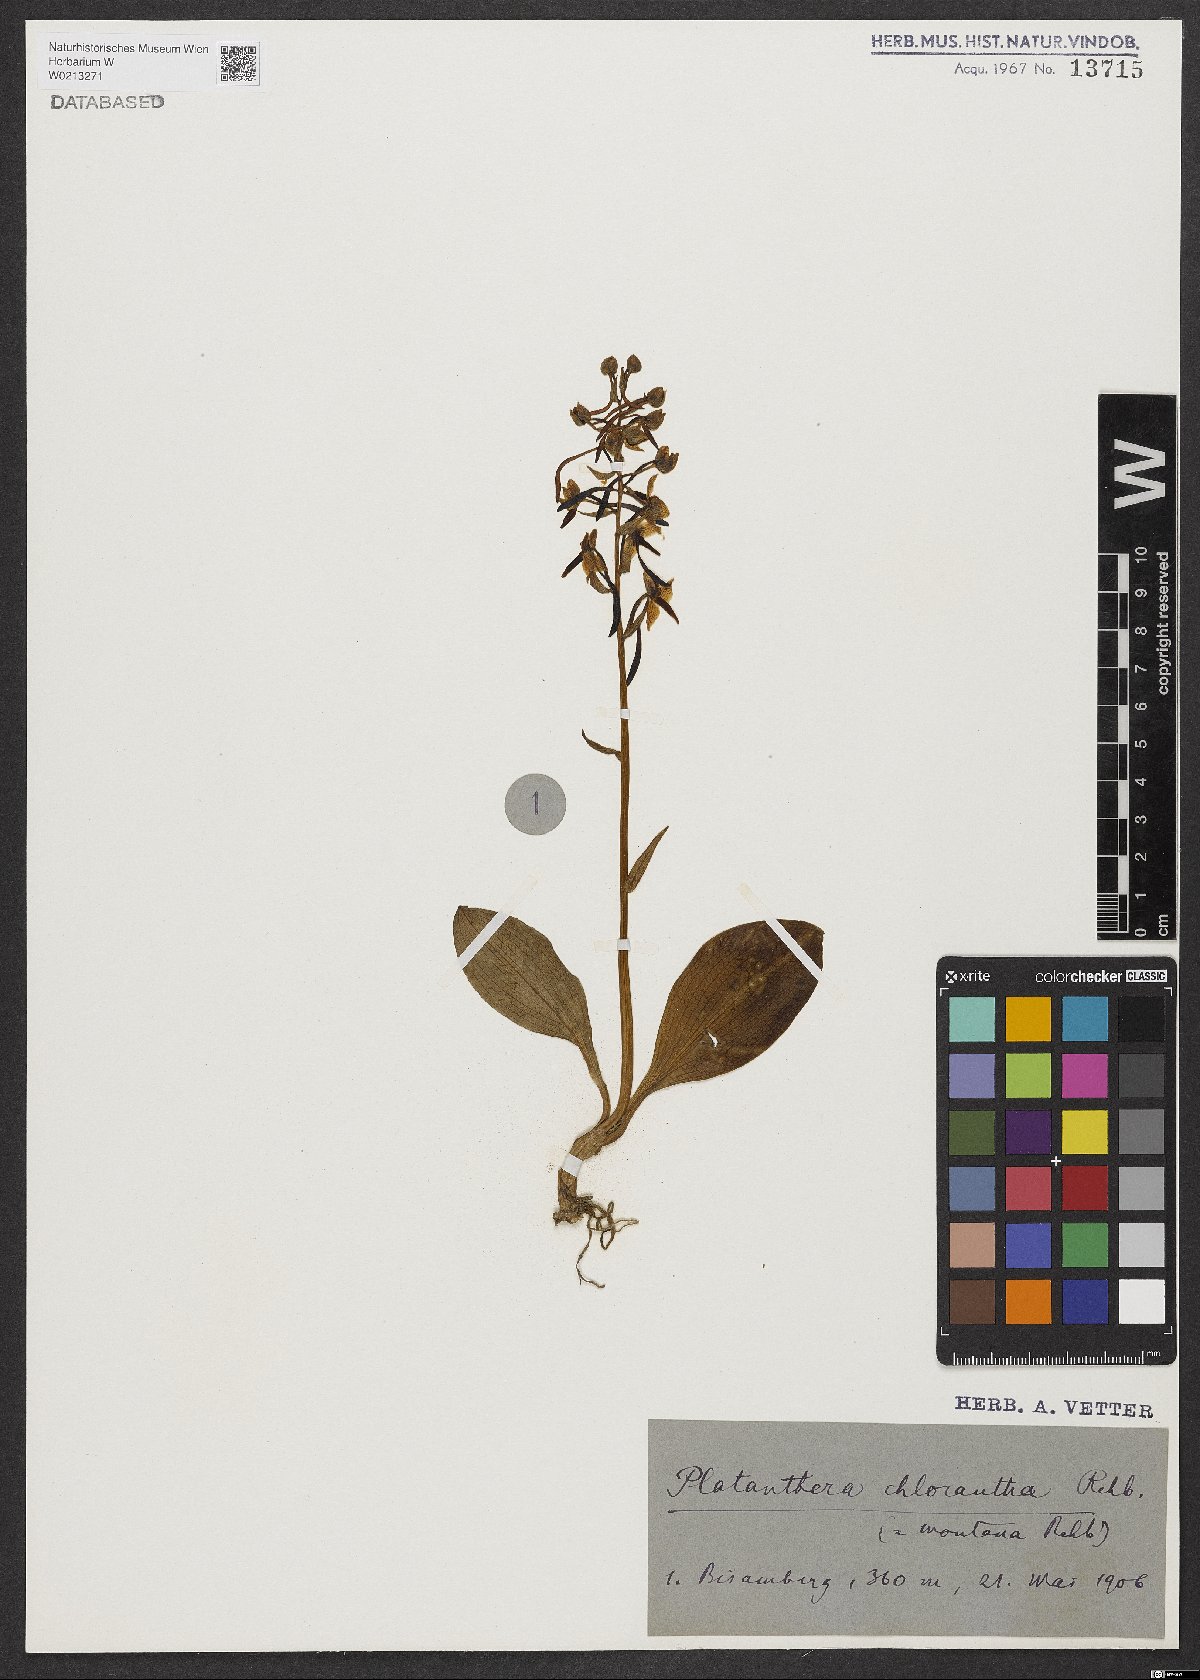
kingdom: Plantae
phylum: Tracheophyta
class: Liliopsida
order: Asparagales
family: Orchidaceae
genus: Platanthera
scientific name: Platanthera chlorantha
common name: Greater butterfly-orchid
